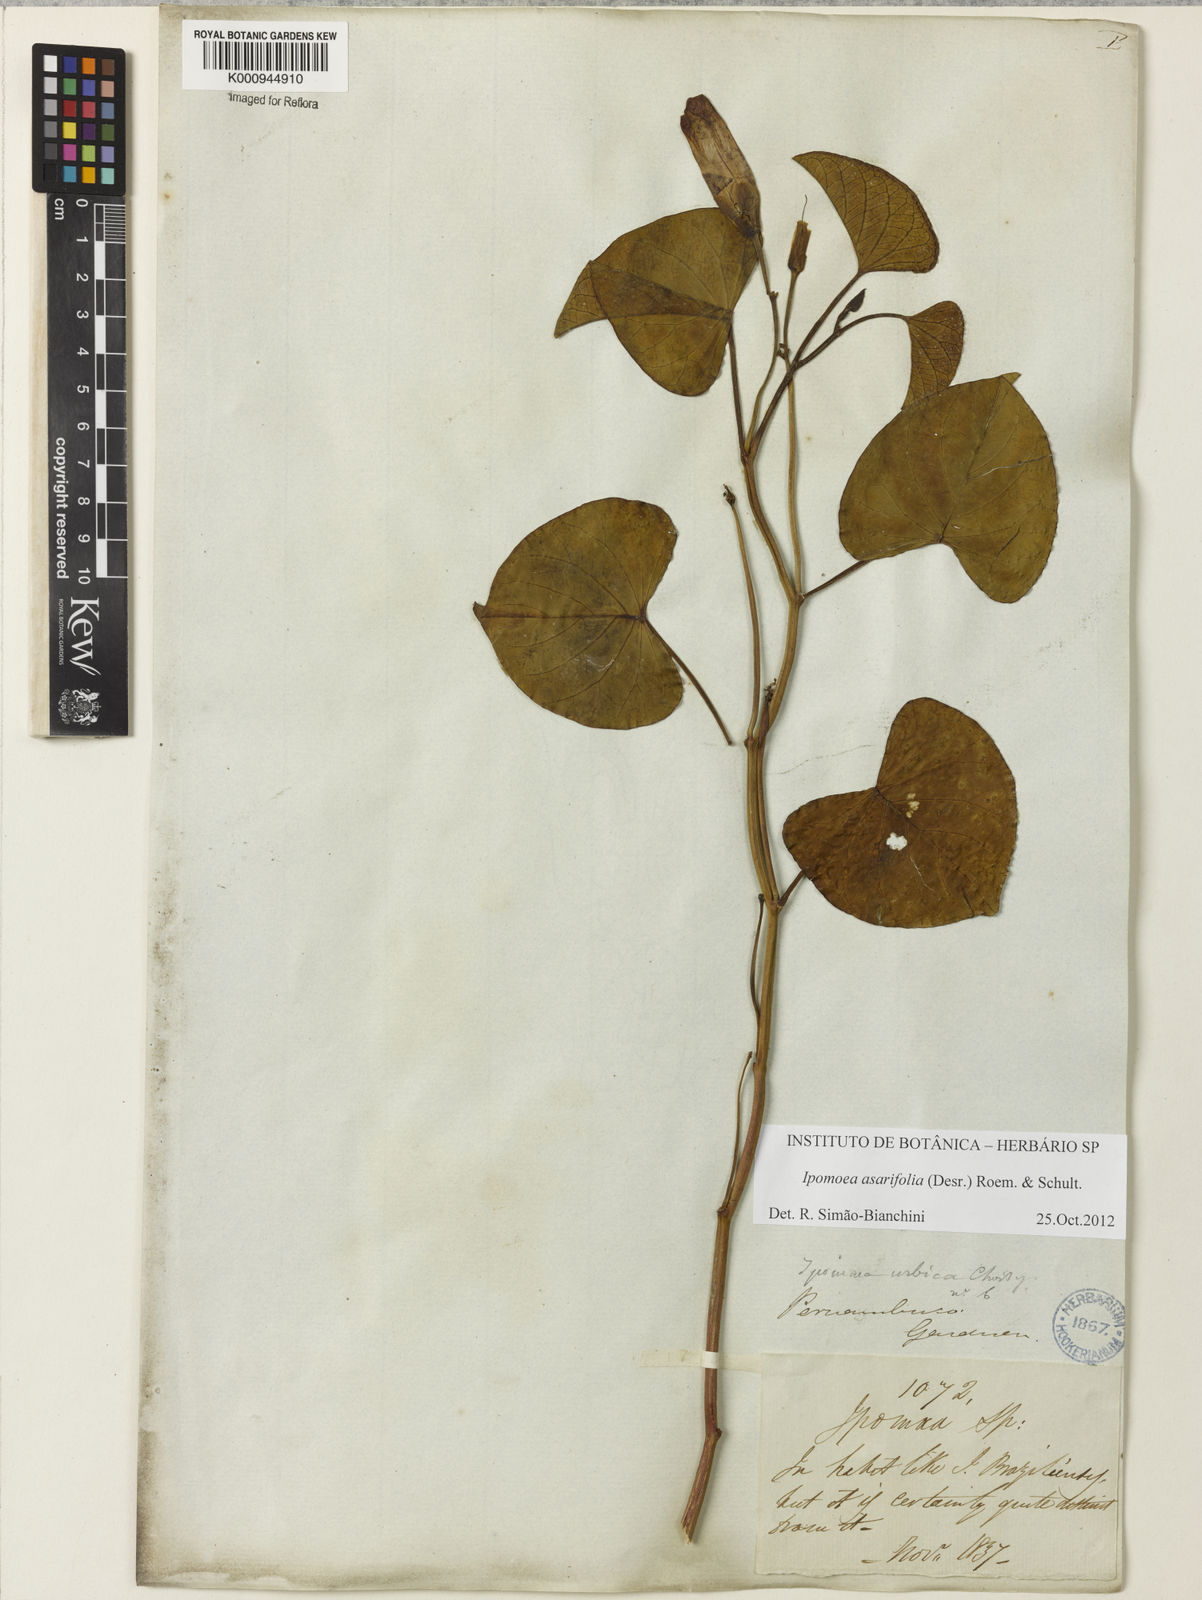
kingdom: Plantae
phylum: Tracheophyta
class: Magnoliopsida
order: Solanales
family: Convolvulaceae
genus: Ipomoea
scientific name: Ipomoea asarifolia
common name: Ginger-leaf morning-glory
